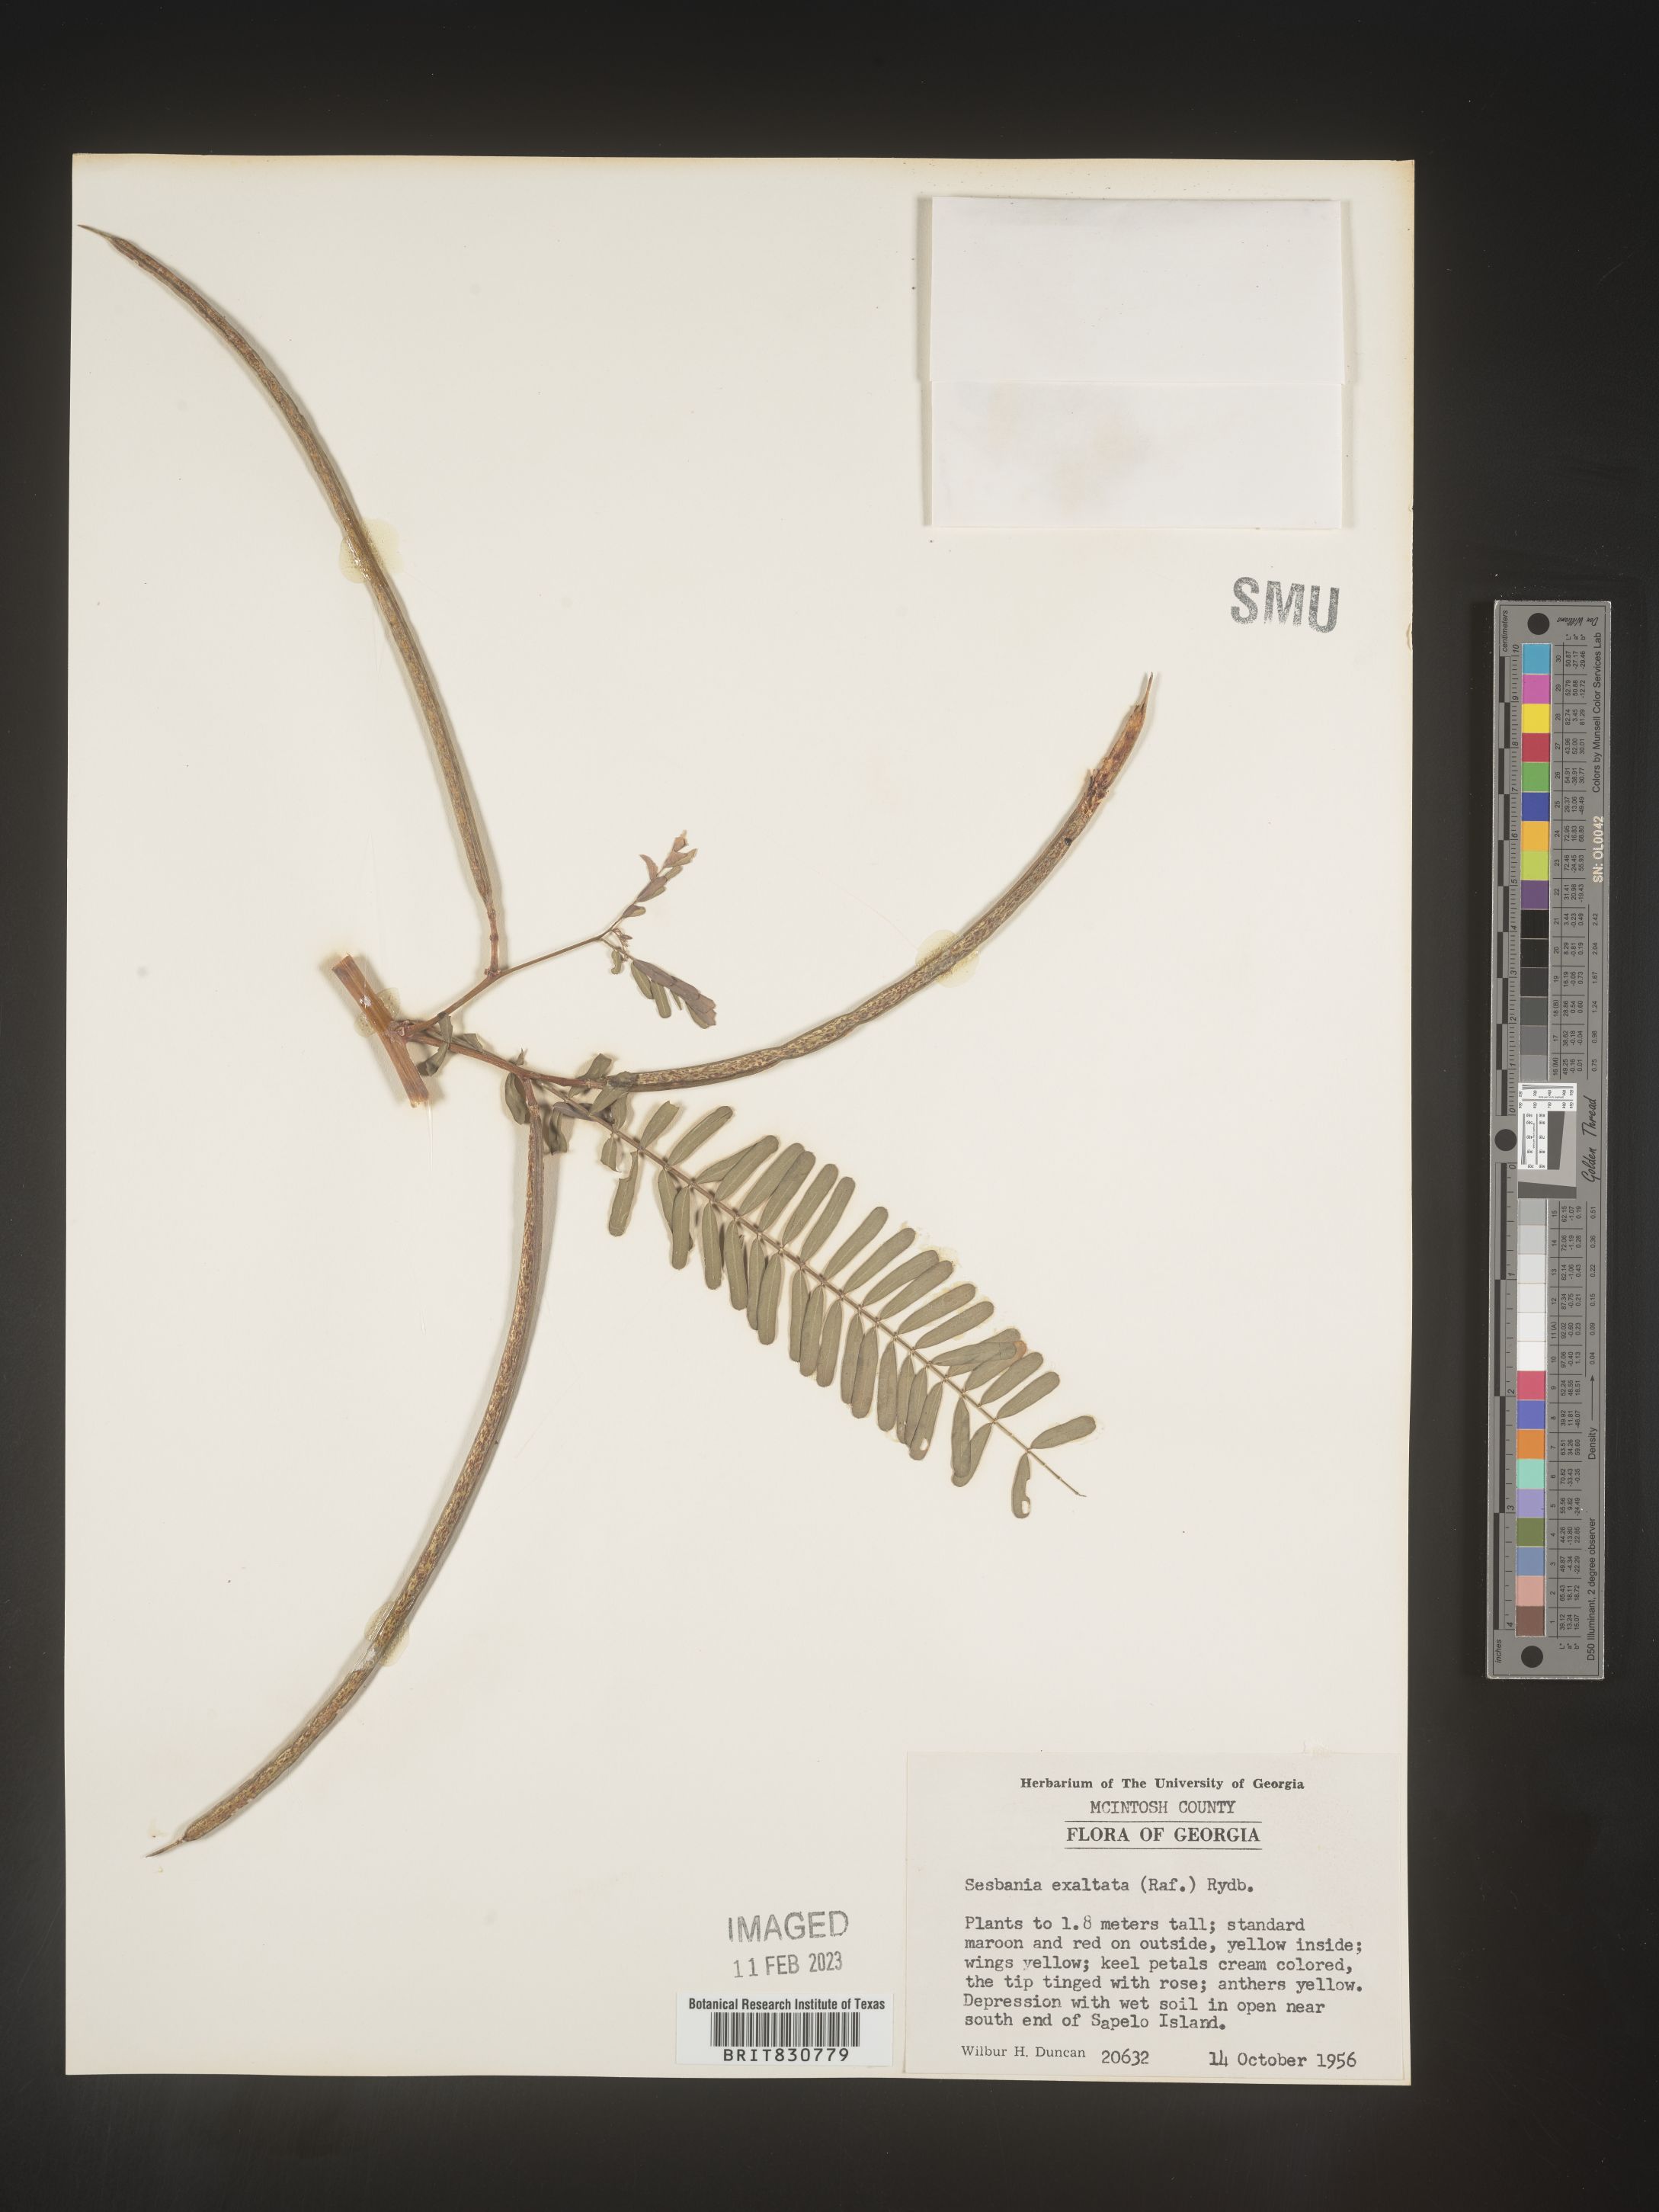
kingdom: Plantae
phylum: Tracheophyta
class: Magnoliopsida
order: Fabales
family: Fabaceae
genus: Sesbania
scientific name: Sesbania vesicaria
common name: Bagpod
